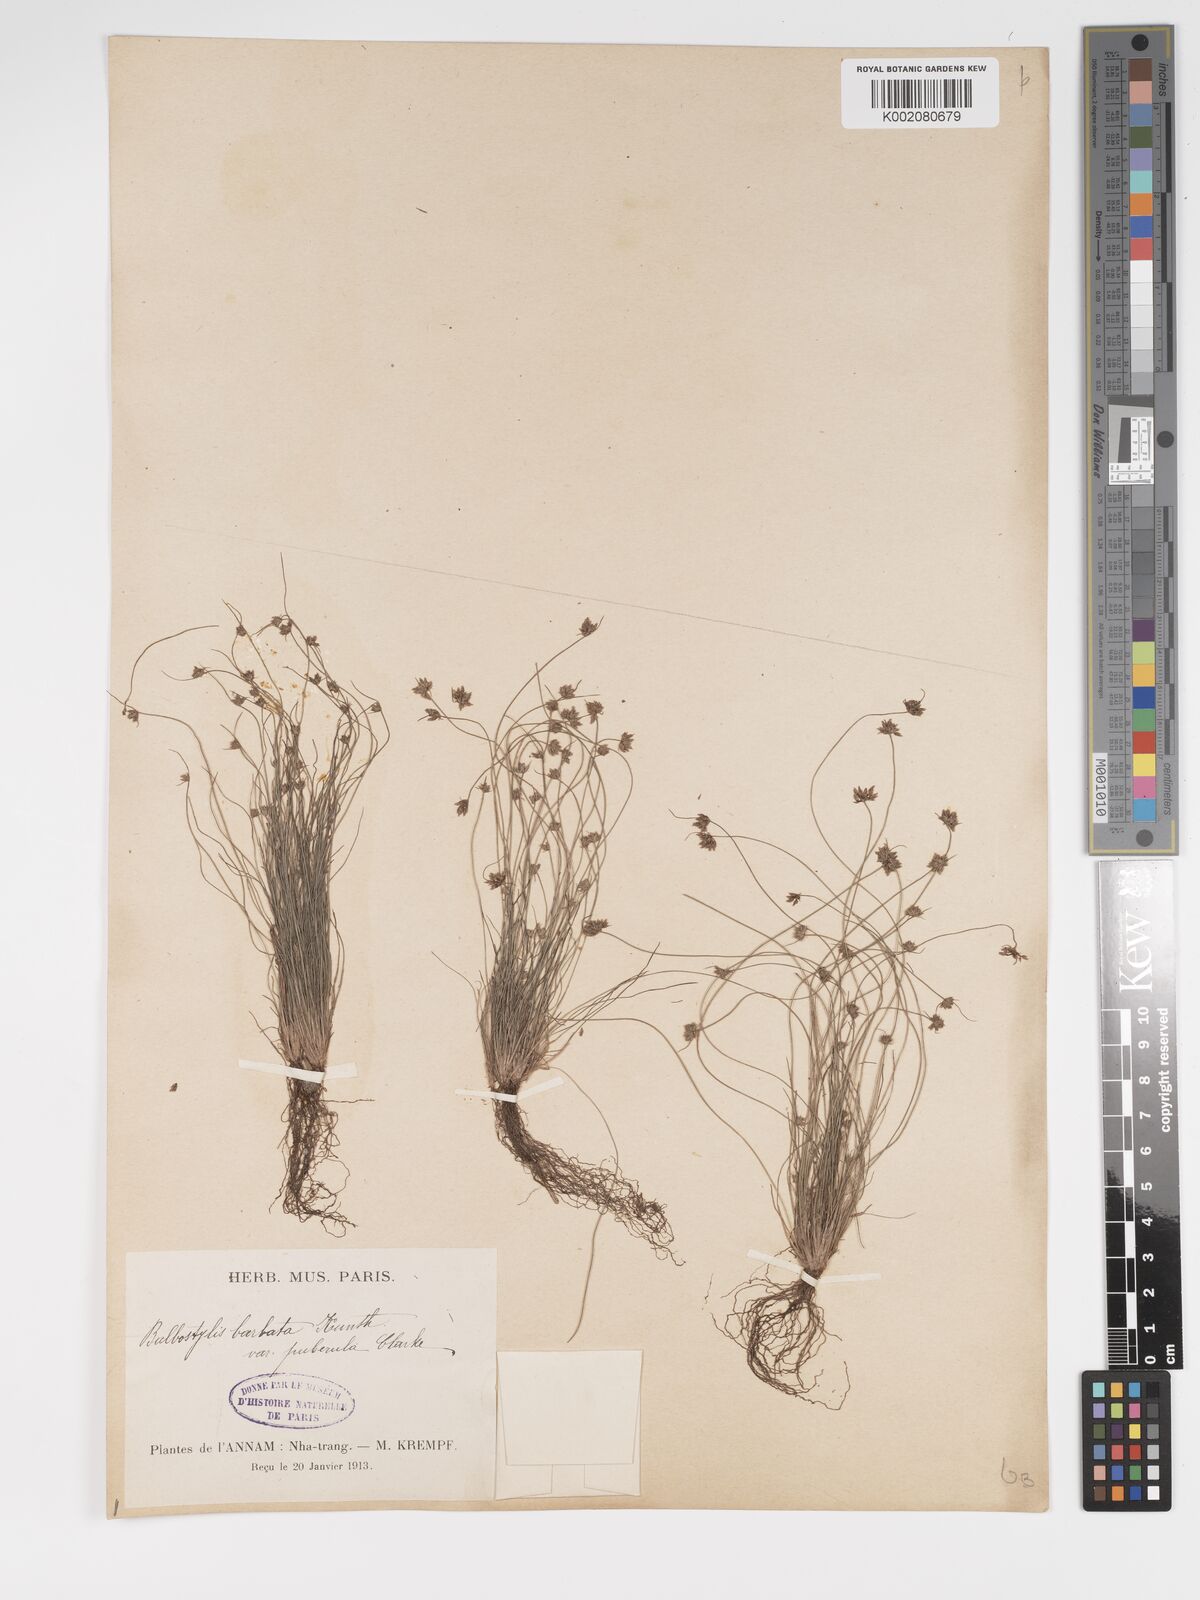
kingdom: Plantae
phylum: Tracheophyta
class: Liliopsida
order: Poales
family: Cyperaceae
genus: Bulbostylis
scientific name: Bulbostylis barbata
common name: Watergrass
